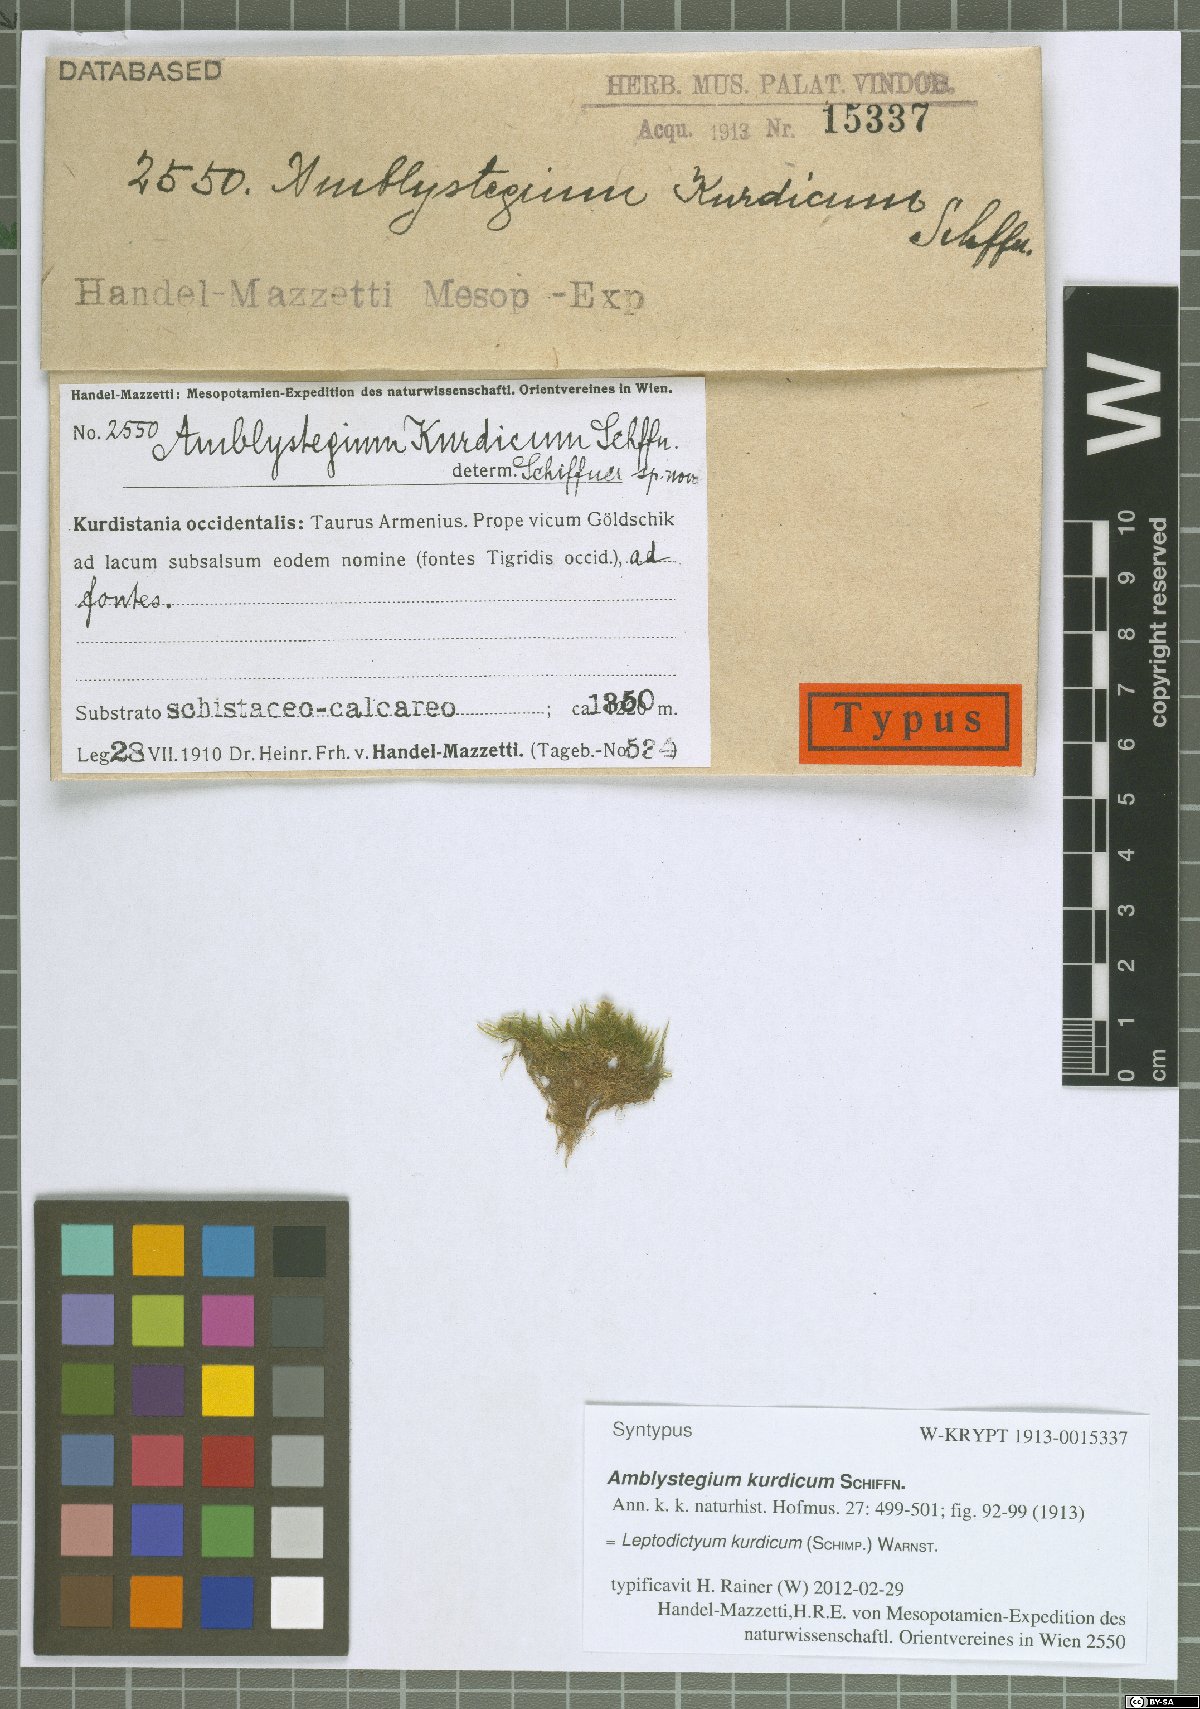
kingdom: Plantae
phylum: Bryophyta
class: Bryopsida
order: Hypnales
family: Amblystegiaceae
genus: Leptodictyum
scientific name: Leptodictyum kurdicum
